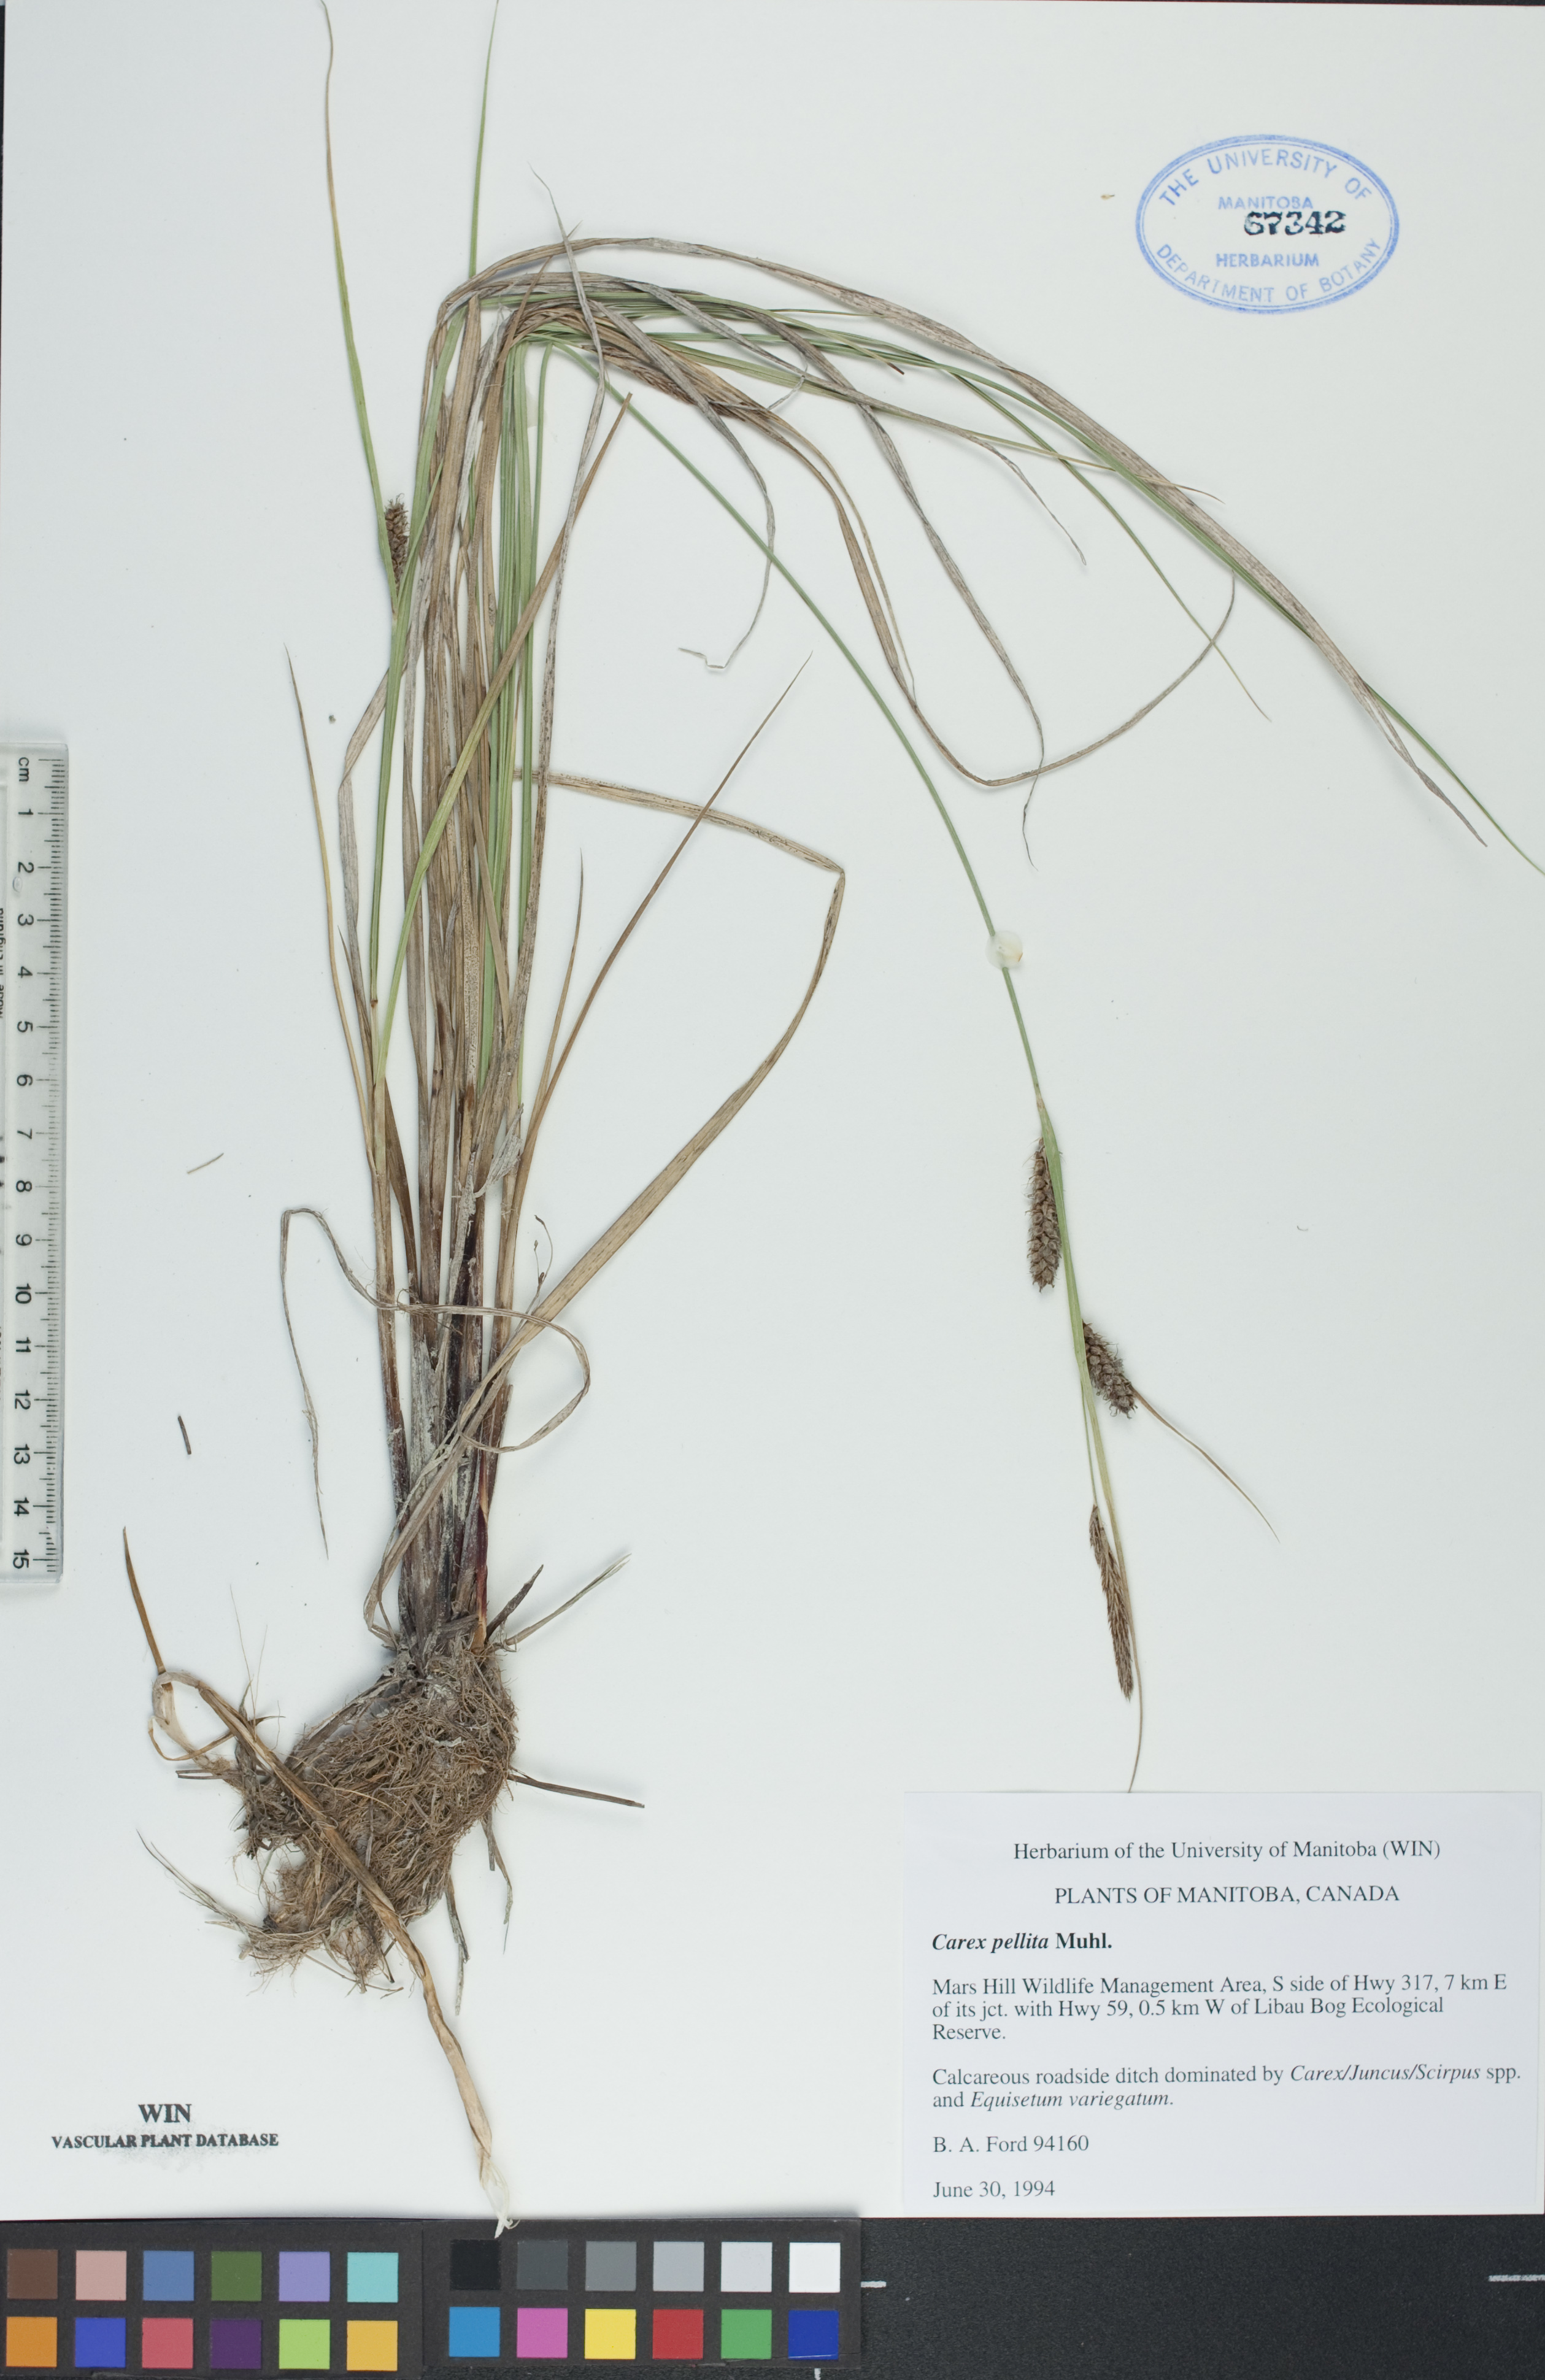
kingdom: Plantae
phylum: Tracheophyta
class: Liliopsida
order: Poales
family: Cyperaceae
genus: Carex
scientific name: Carex pellita
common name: Woolly sedge
